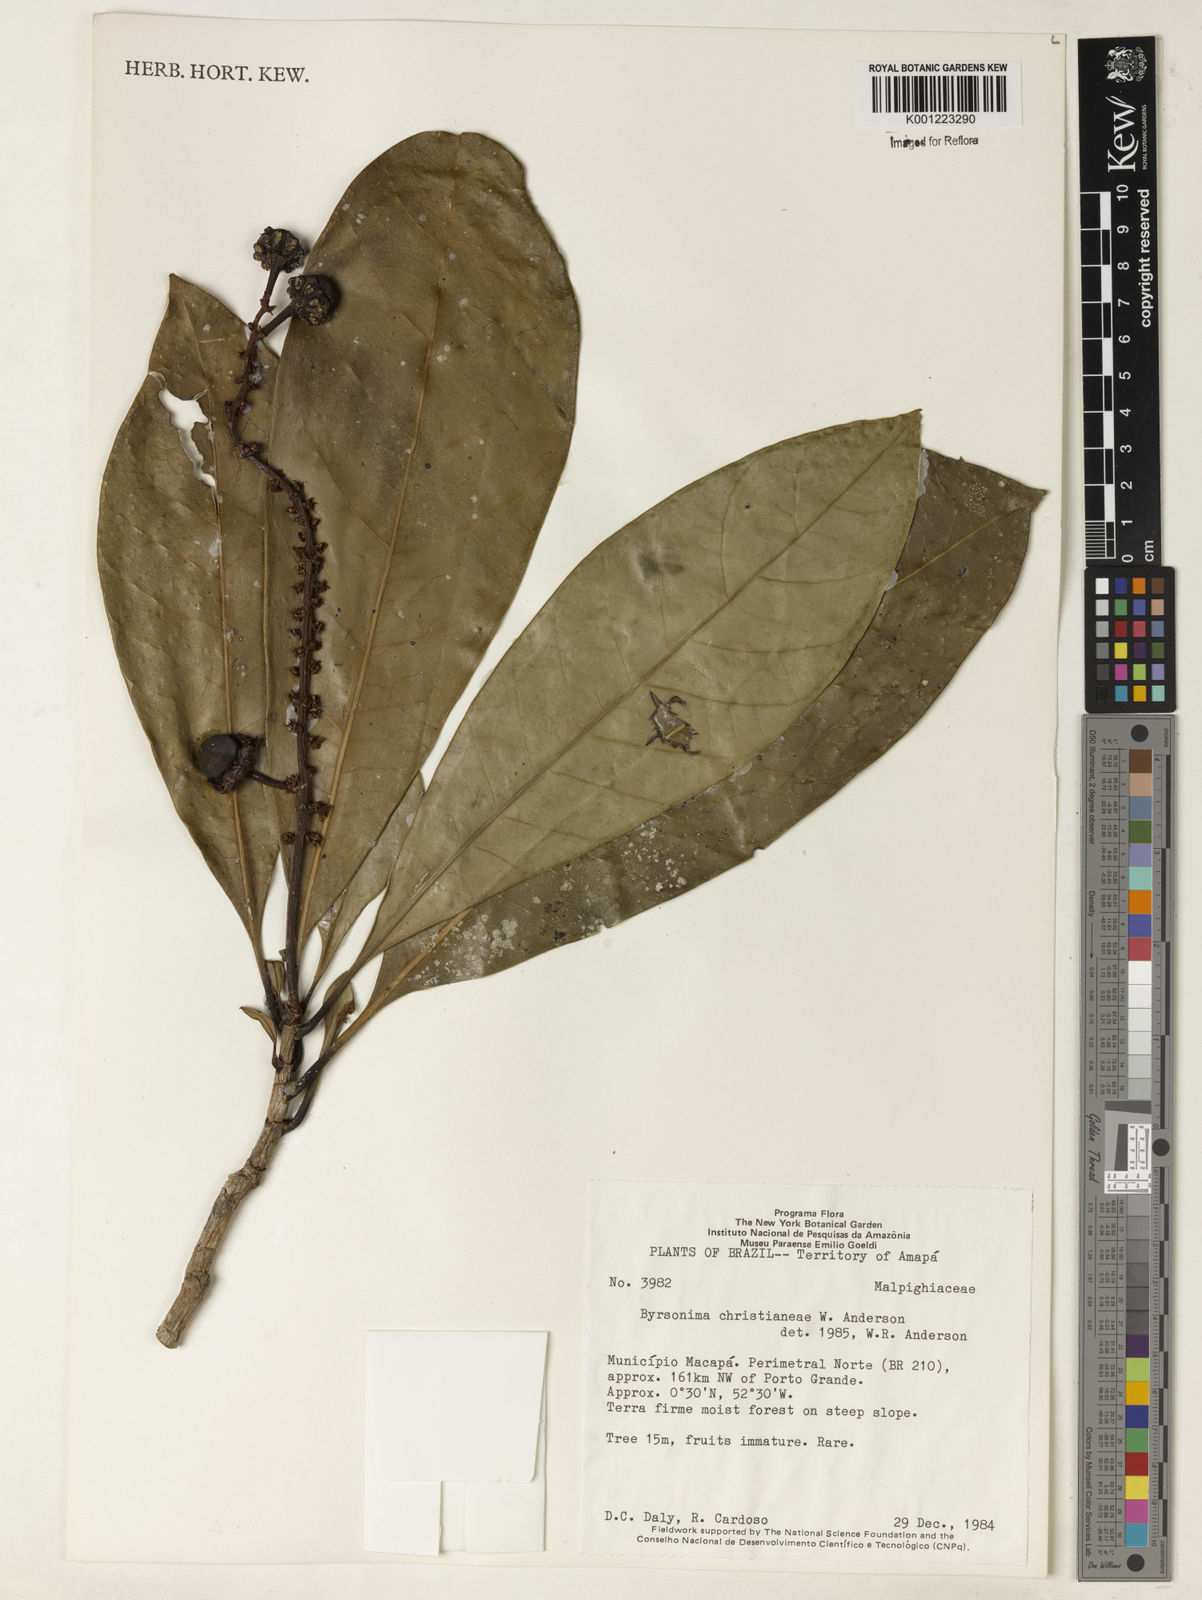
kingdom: Plantae
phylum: Tracheophyta
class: Magnoliopsida
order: Malpighiales
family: Malpighiaceae
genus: Byrsonima
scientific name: Byrsonima christianeae
